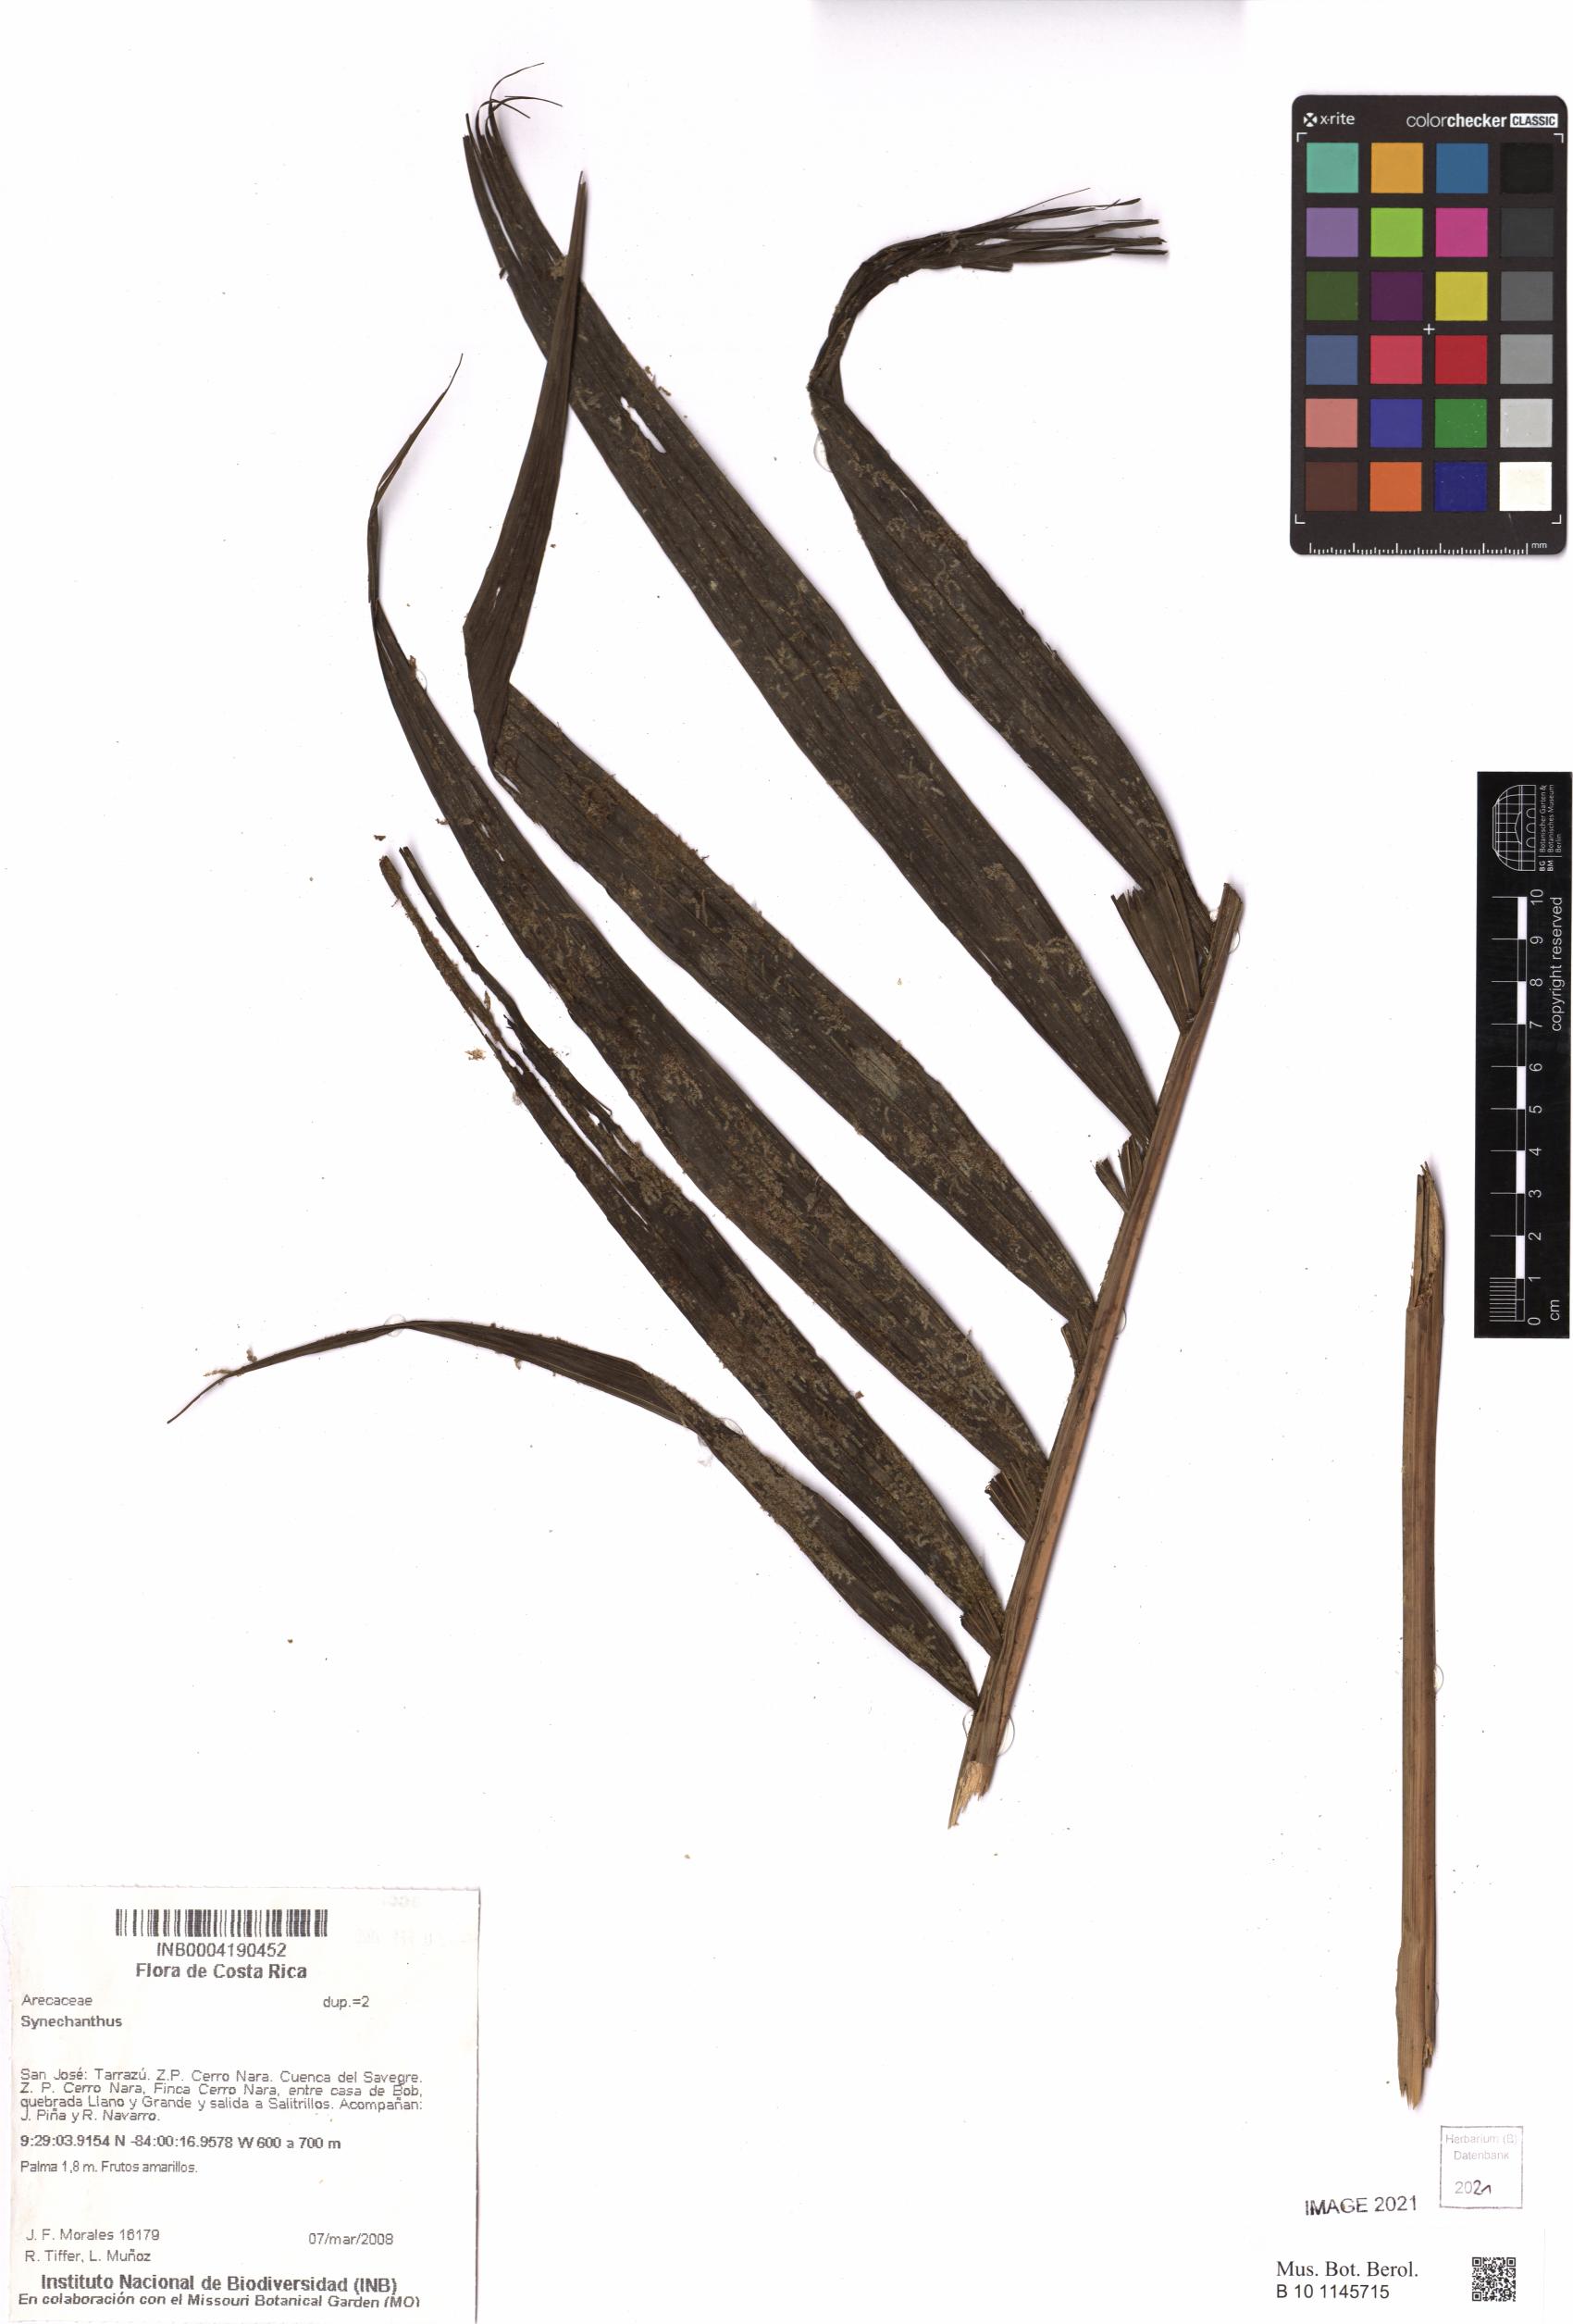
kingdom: Plantae
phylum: Tracheophyta
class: Liliopsida
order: Arecales
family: Arecaceae
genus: Synechanthus
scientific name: Synechanthus
